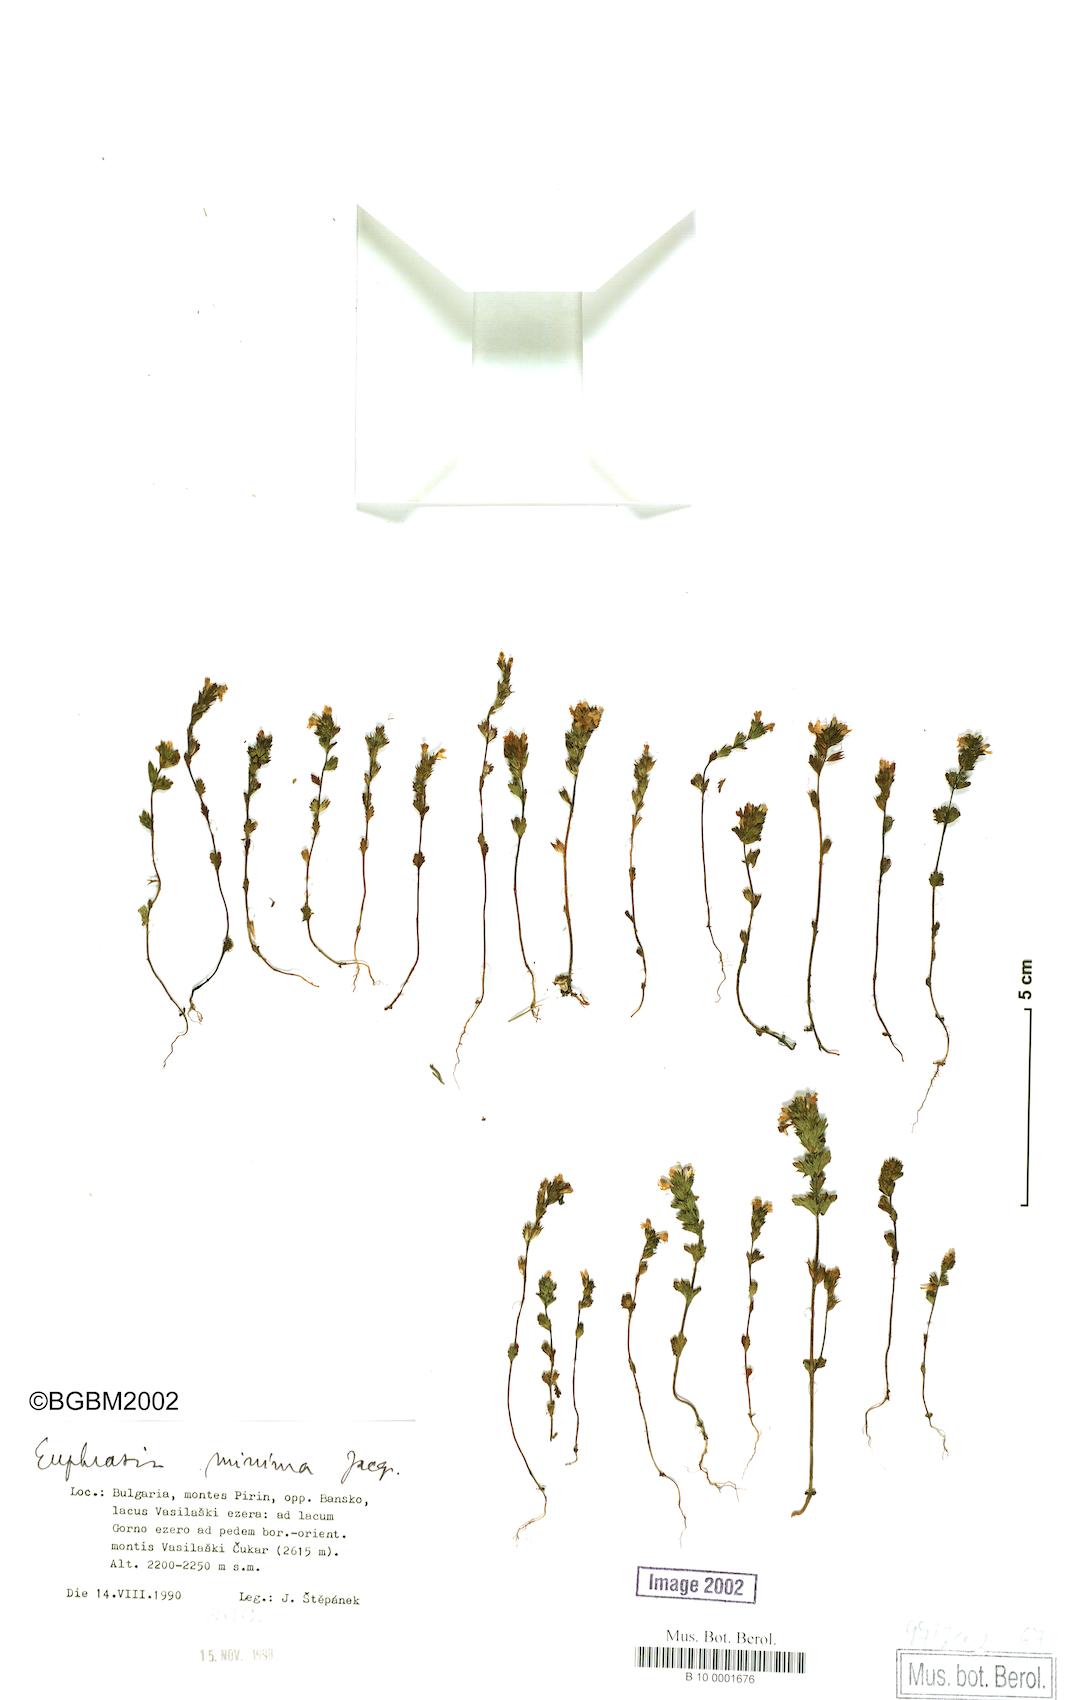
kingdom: Plantae
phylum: Tracheophyta
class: Magnoliopsida
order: Lamiales
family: Orobanchaceae
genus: Euphrasia
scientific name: Euphrasia minima
